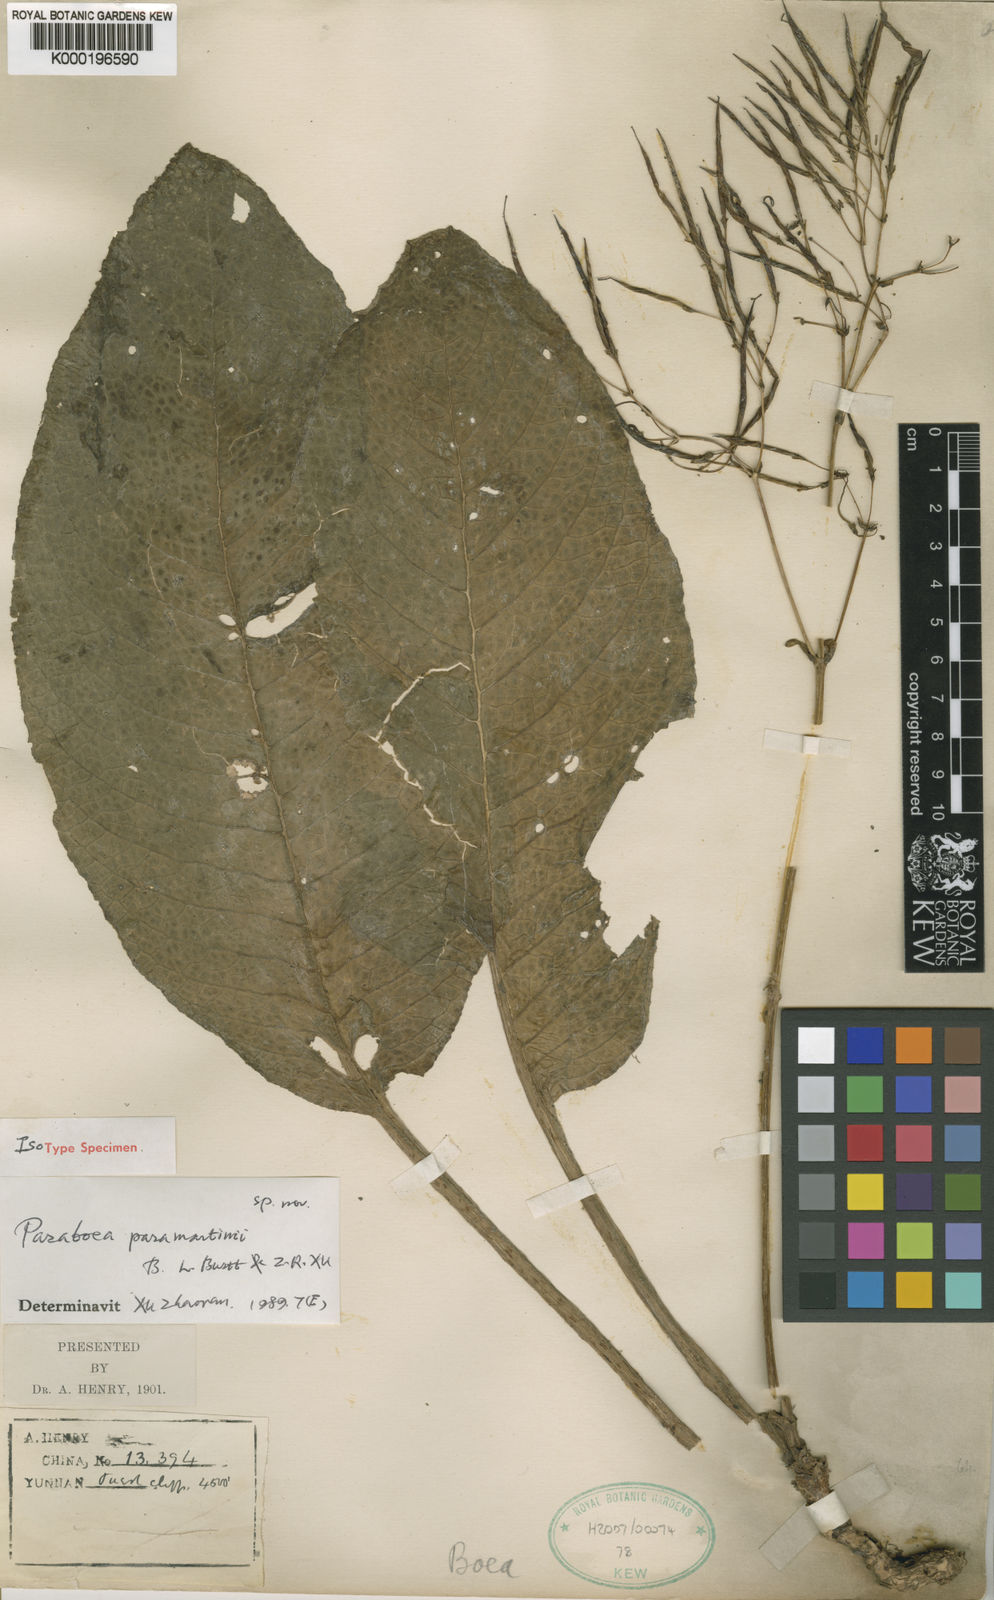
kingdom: Plantae
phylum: Tracheophyta
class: Magnoliopsida
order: Lamiales
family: Gesneriaceae
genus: Paraboea
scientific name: Paraboea paramartinii
